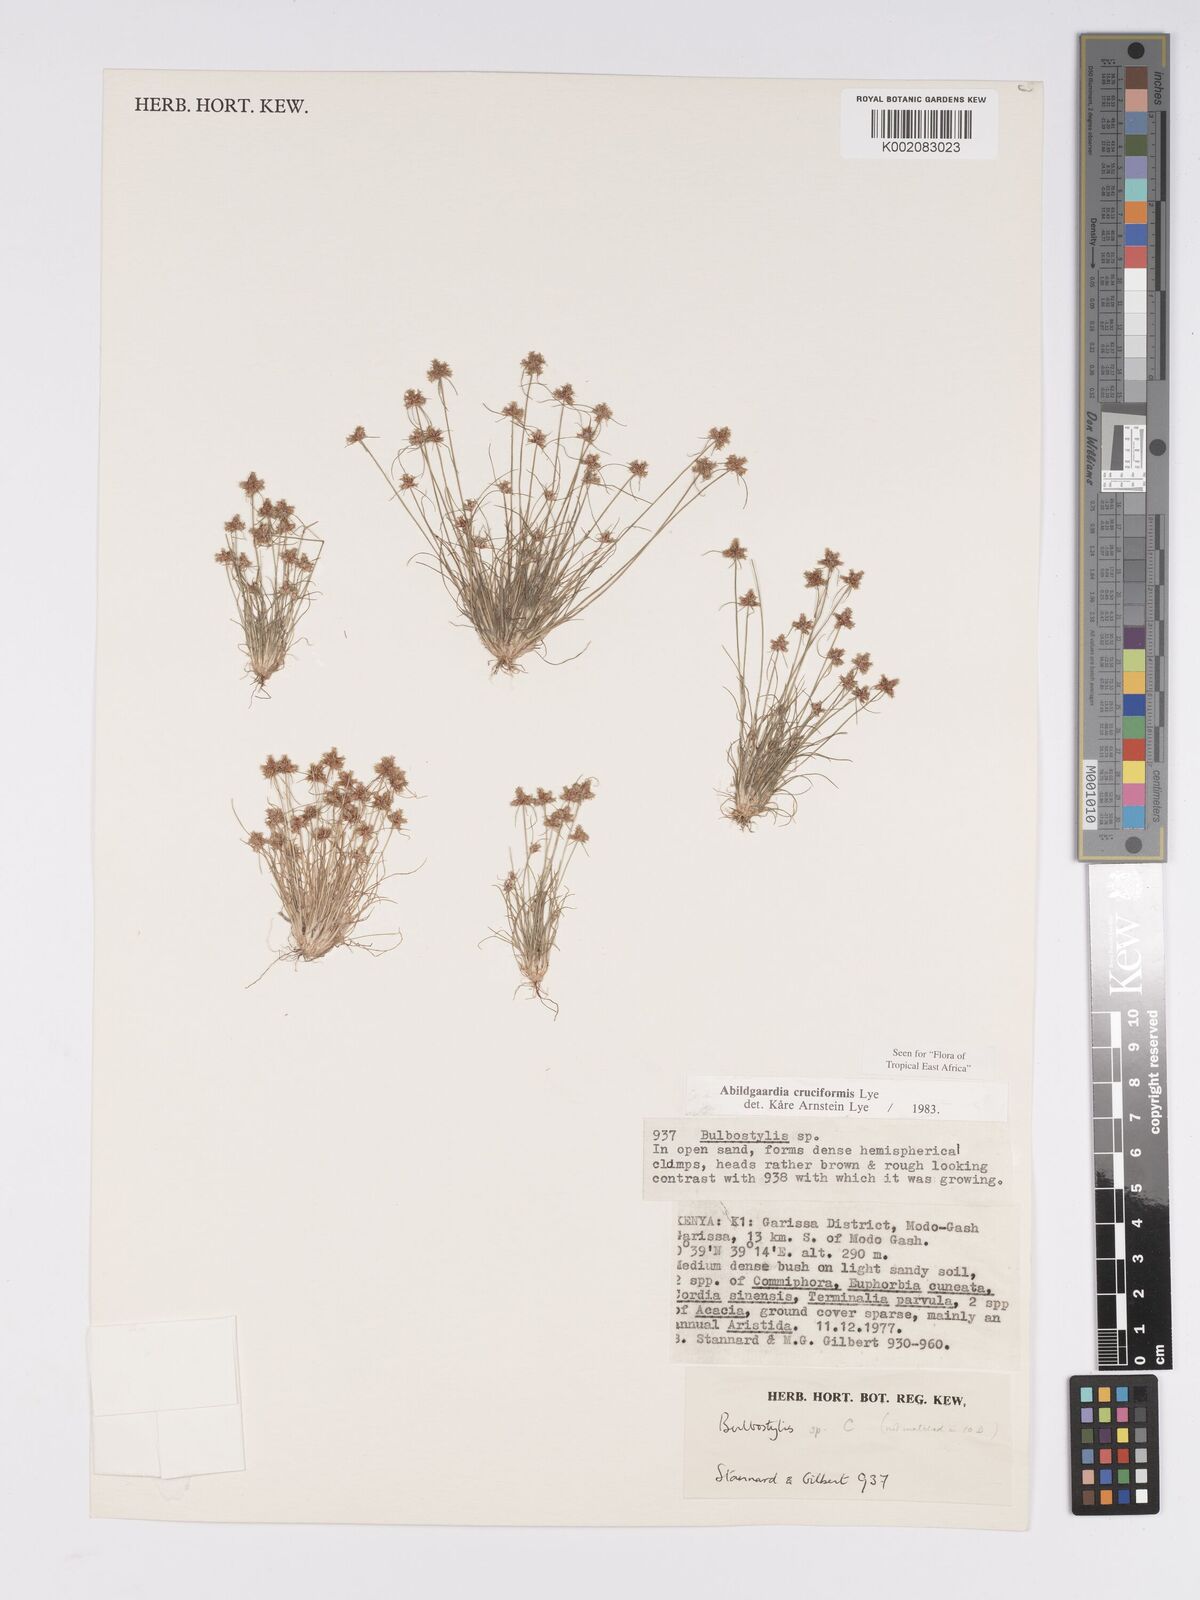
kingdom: Plantae
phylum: Tracheophyta
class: Liliopsida
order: Poales
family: Cyperaceae
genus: Bulbostylis
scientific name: Bulbostylis cruciformis
